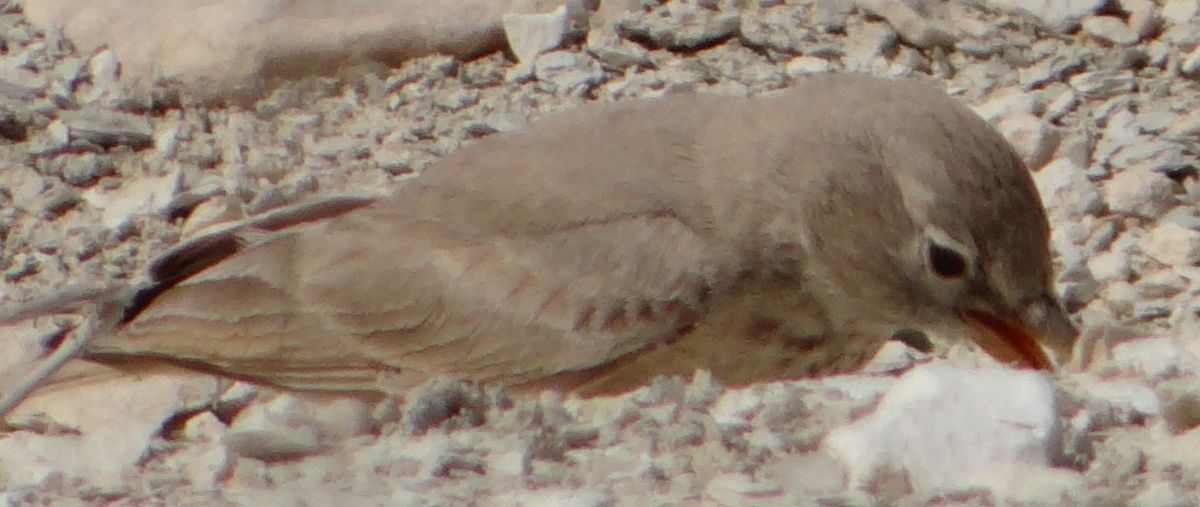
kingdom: Animalia
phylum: Chordata
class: Aves
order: Passeriformes
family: Alaudidae
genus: Ammomanes
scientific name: Ammomanes deserti
